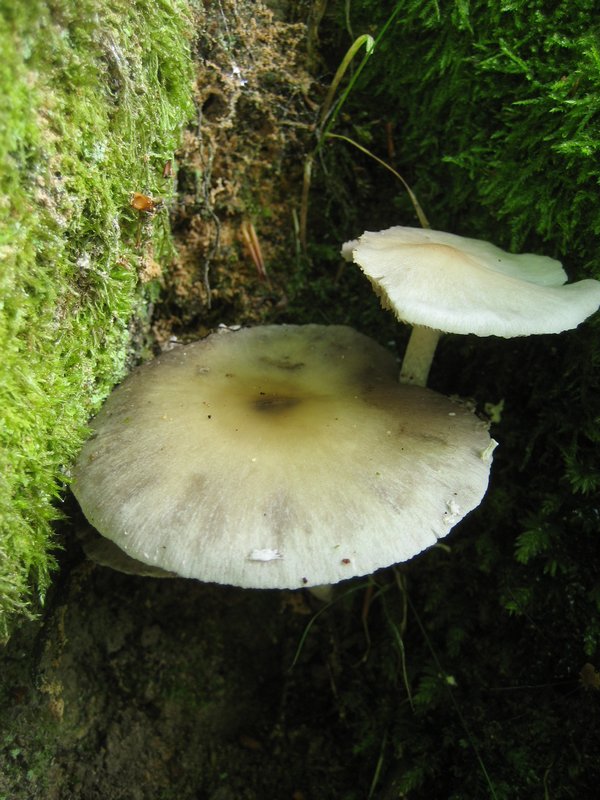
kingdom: Fungi
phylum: Basidiomycota
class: Agaricomycetes
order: Agaricales
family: Psathyrellaceae
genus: Candolleomyces
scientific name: Candolleomyces candolleanus
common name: Candolles mørkhat
